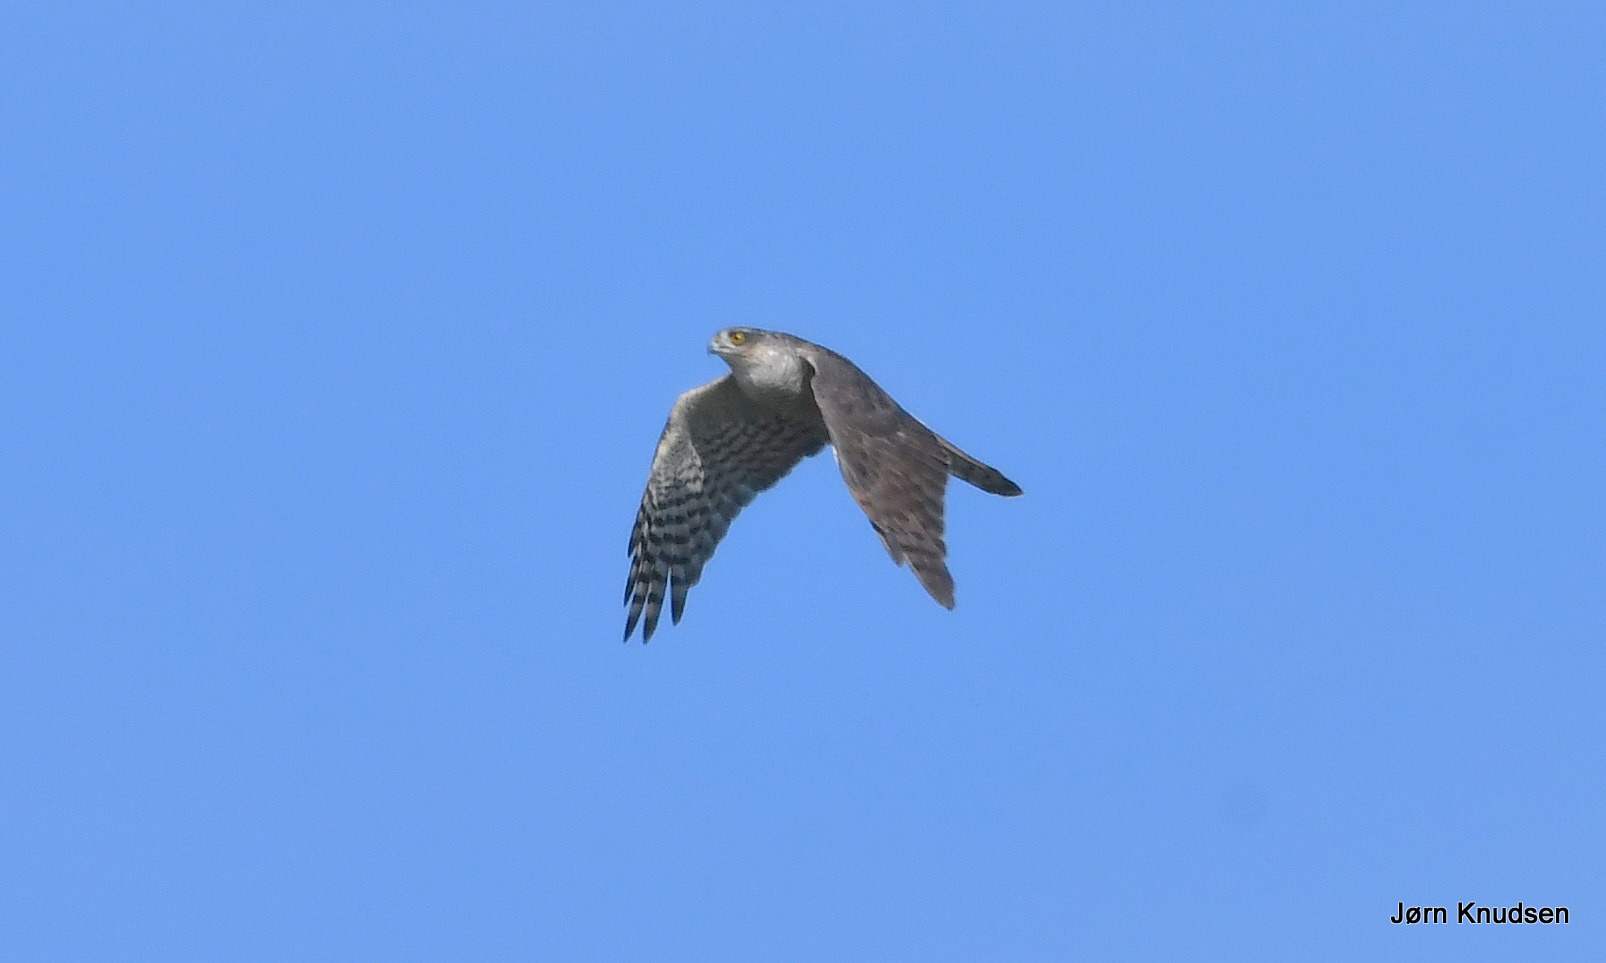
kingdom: Animalia
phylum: Chordata
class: Aves
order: Accipitriformes
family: Accipitridae
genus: Accipiter
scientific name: Accipiter nisus
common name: Spurvehøg
